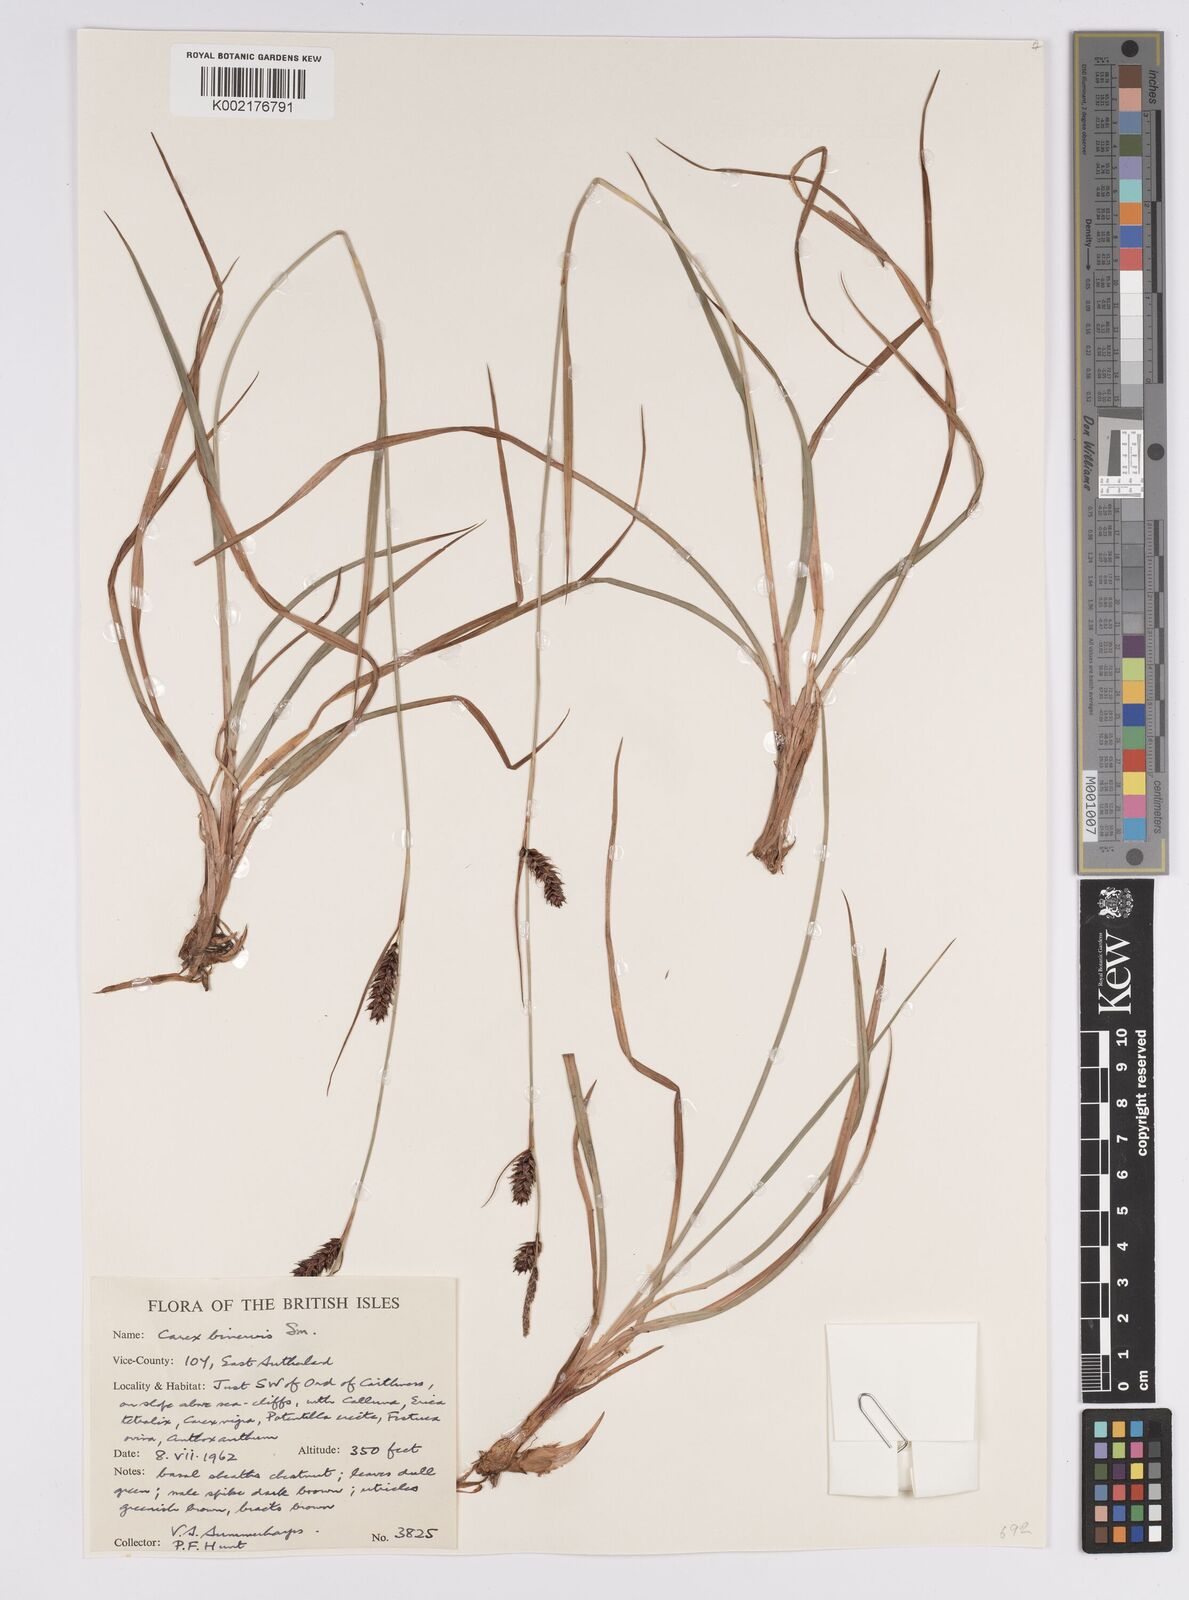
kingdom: Plantae
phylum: Tracheophyta
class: Liliopsida
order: Poales
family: Cyperaceae
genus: Carex
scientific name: Carex binervis
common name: Green-ribbed sedge
